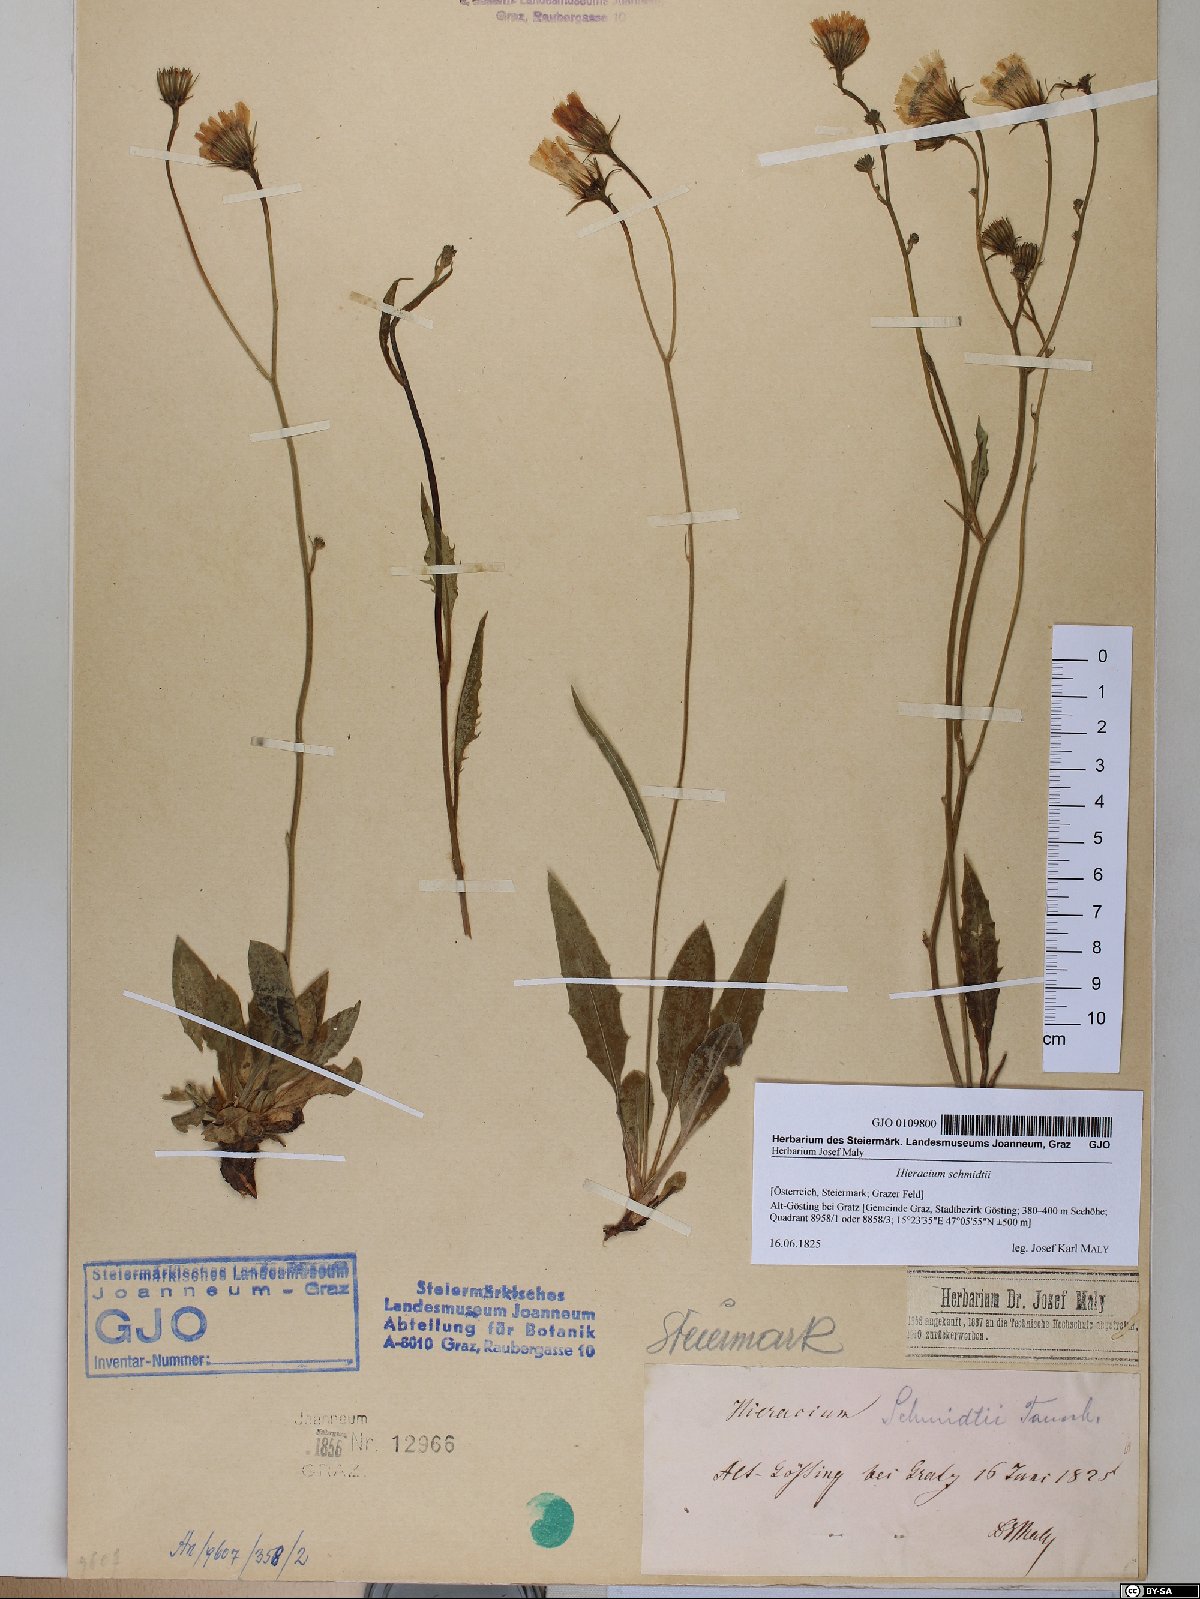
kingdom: Plantae
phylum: Tracheophyta
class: Magnoliopsida
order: Asterales
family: Asteraceae
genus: Hieracium
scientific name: Hieracium schmidtii
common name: Schmidt's hawkweed
